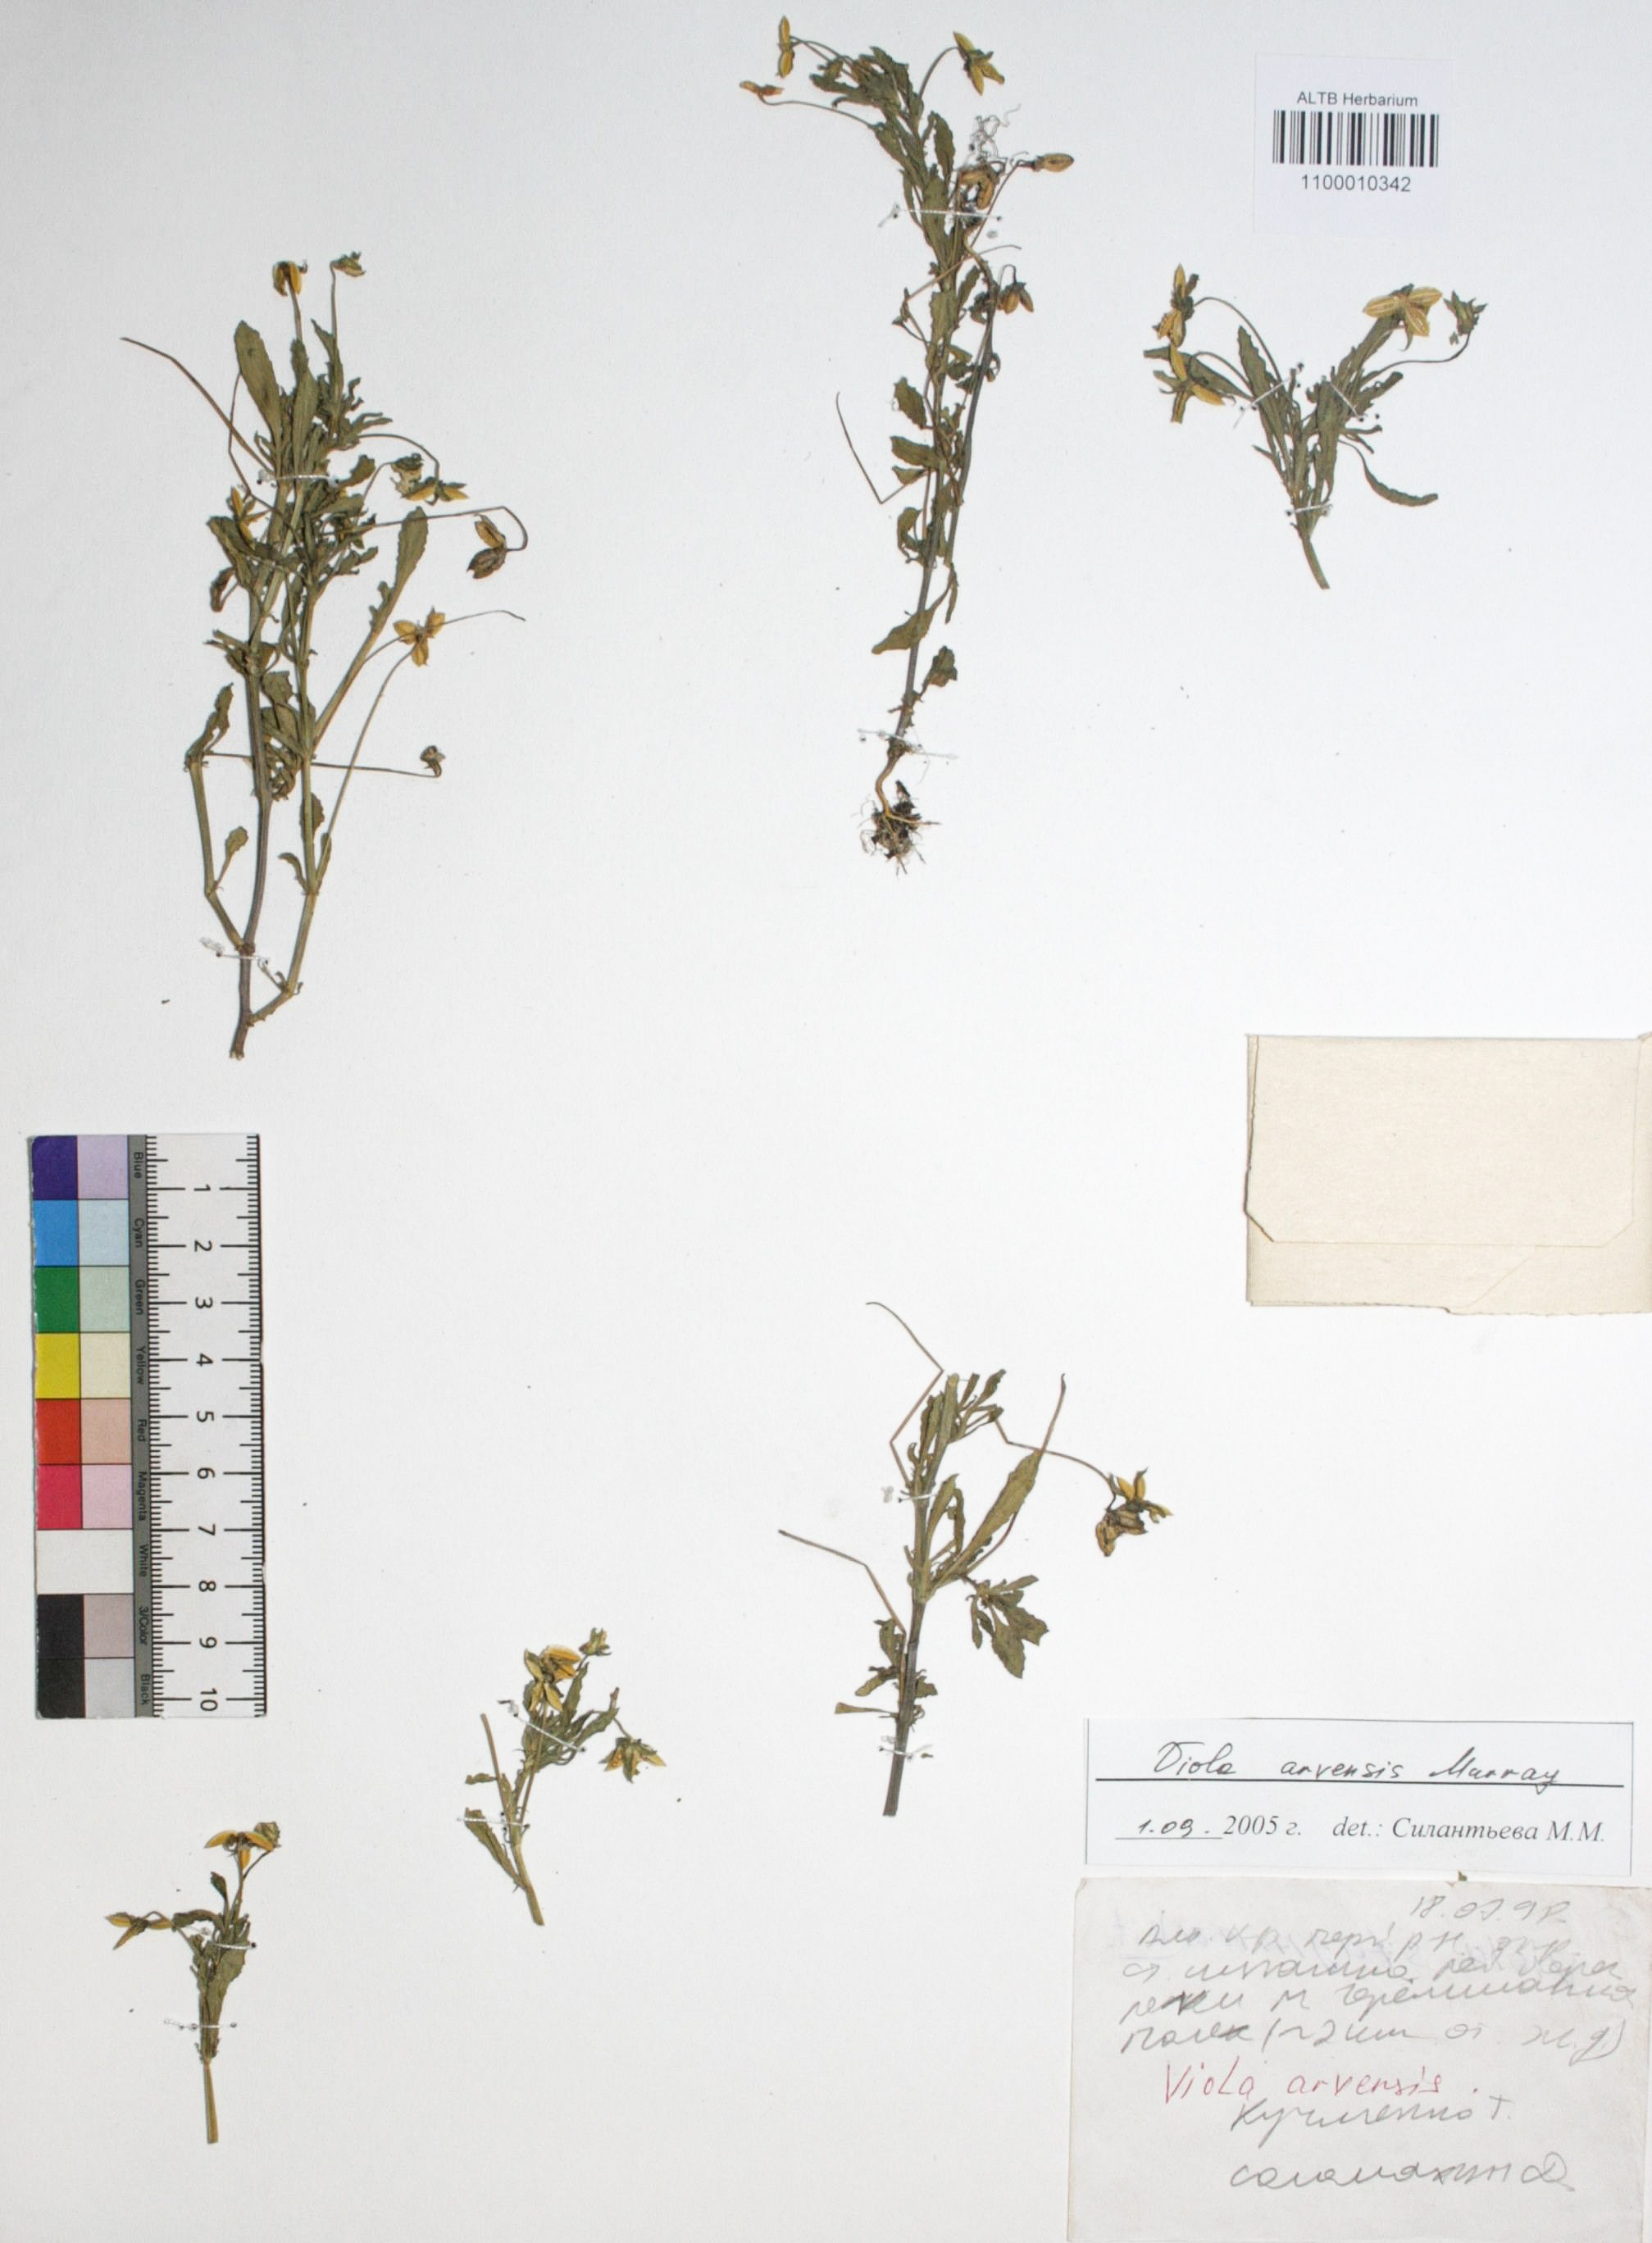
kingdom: Plantae
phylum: Tracheophyta
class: Magnoliopsida
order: Malpighiales
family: Violaceae
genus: Viola
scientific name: Viola arvensis
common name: Field pansy
